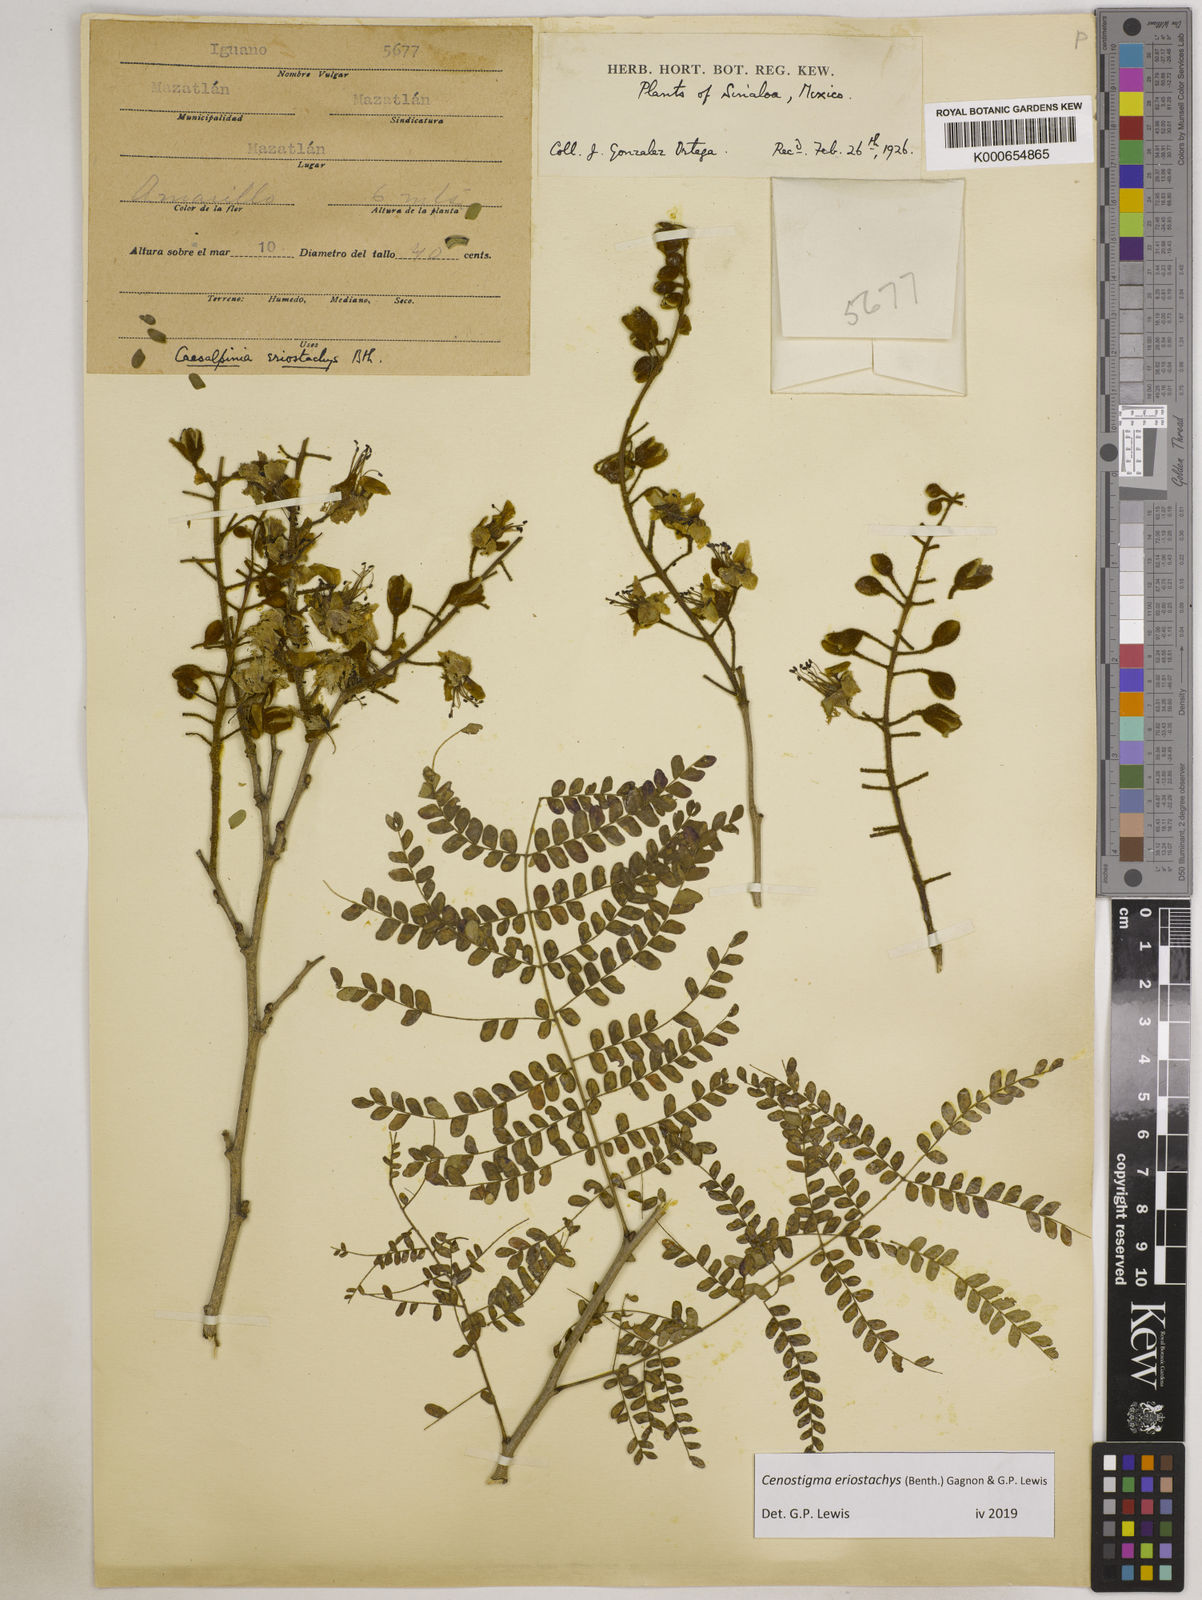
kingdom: Plantae
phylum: Tracheophyta
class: Magnoliopsida
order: Fabales
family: Fabaceae
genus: Cenostigma
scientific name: Cenostigma eriostachys
